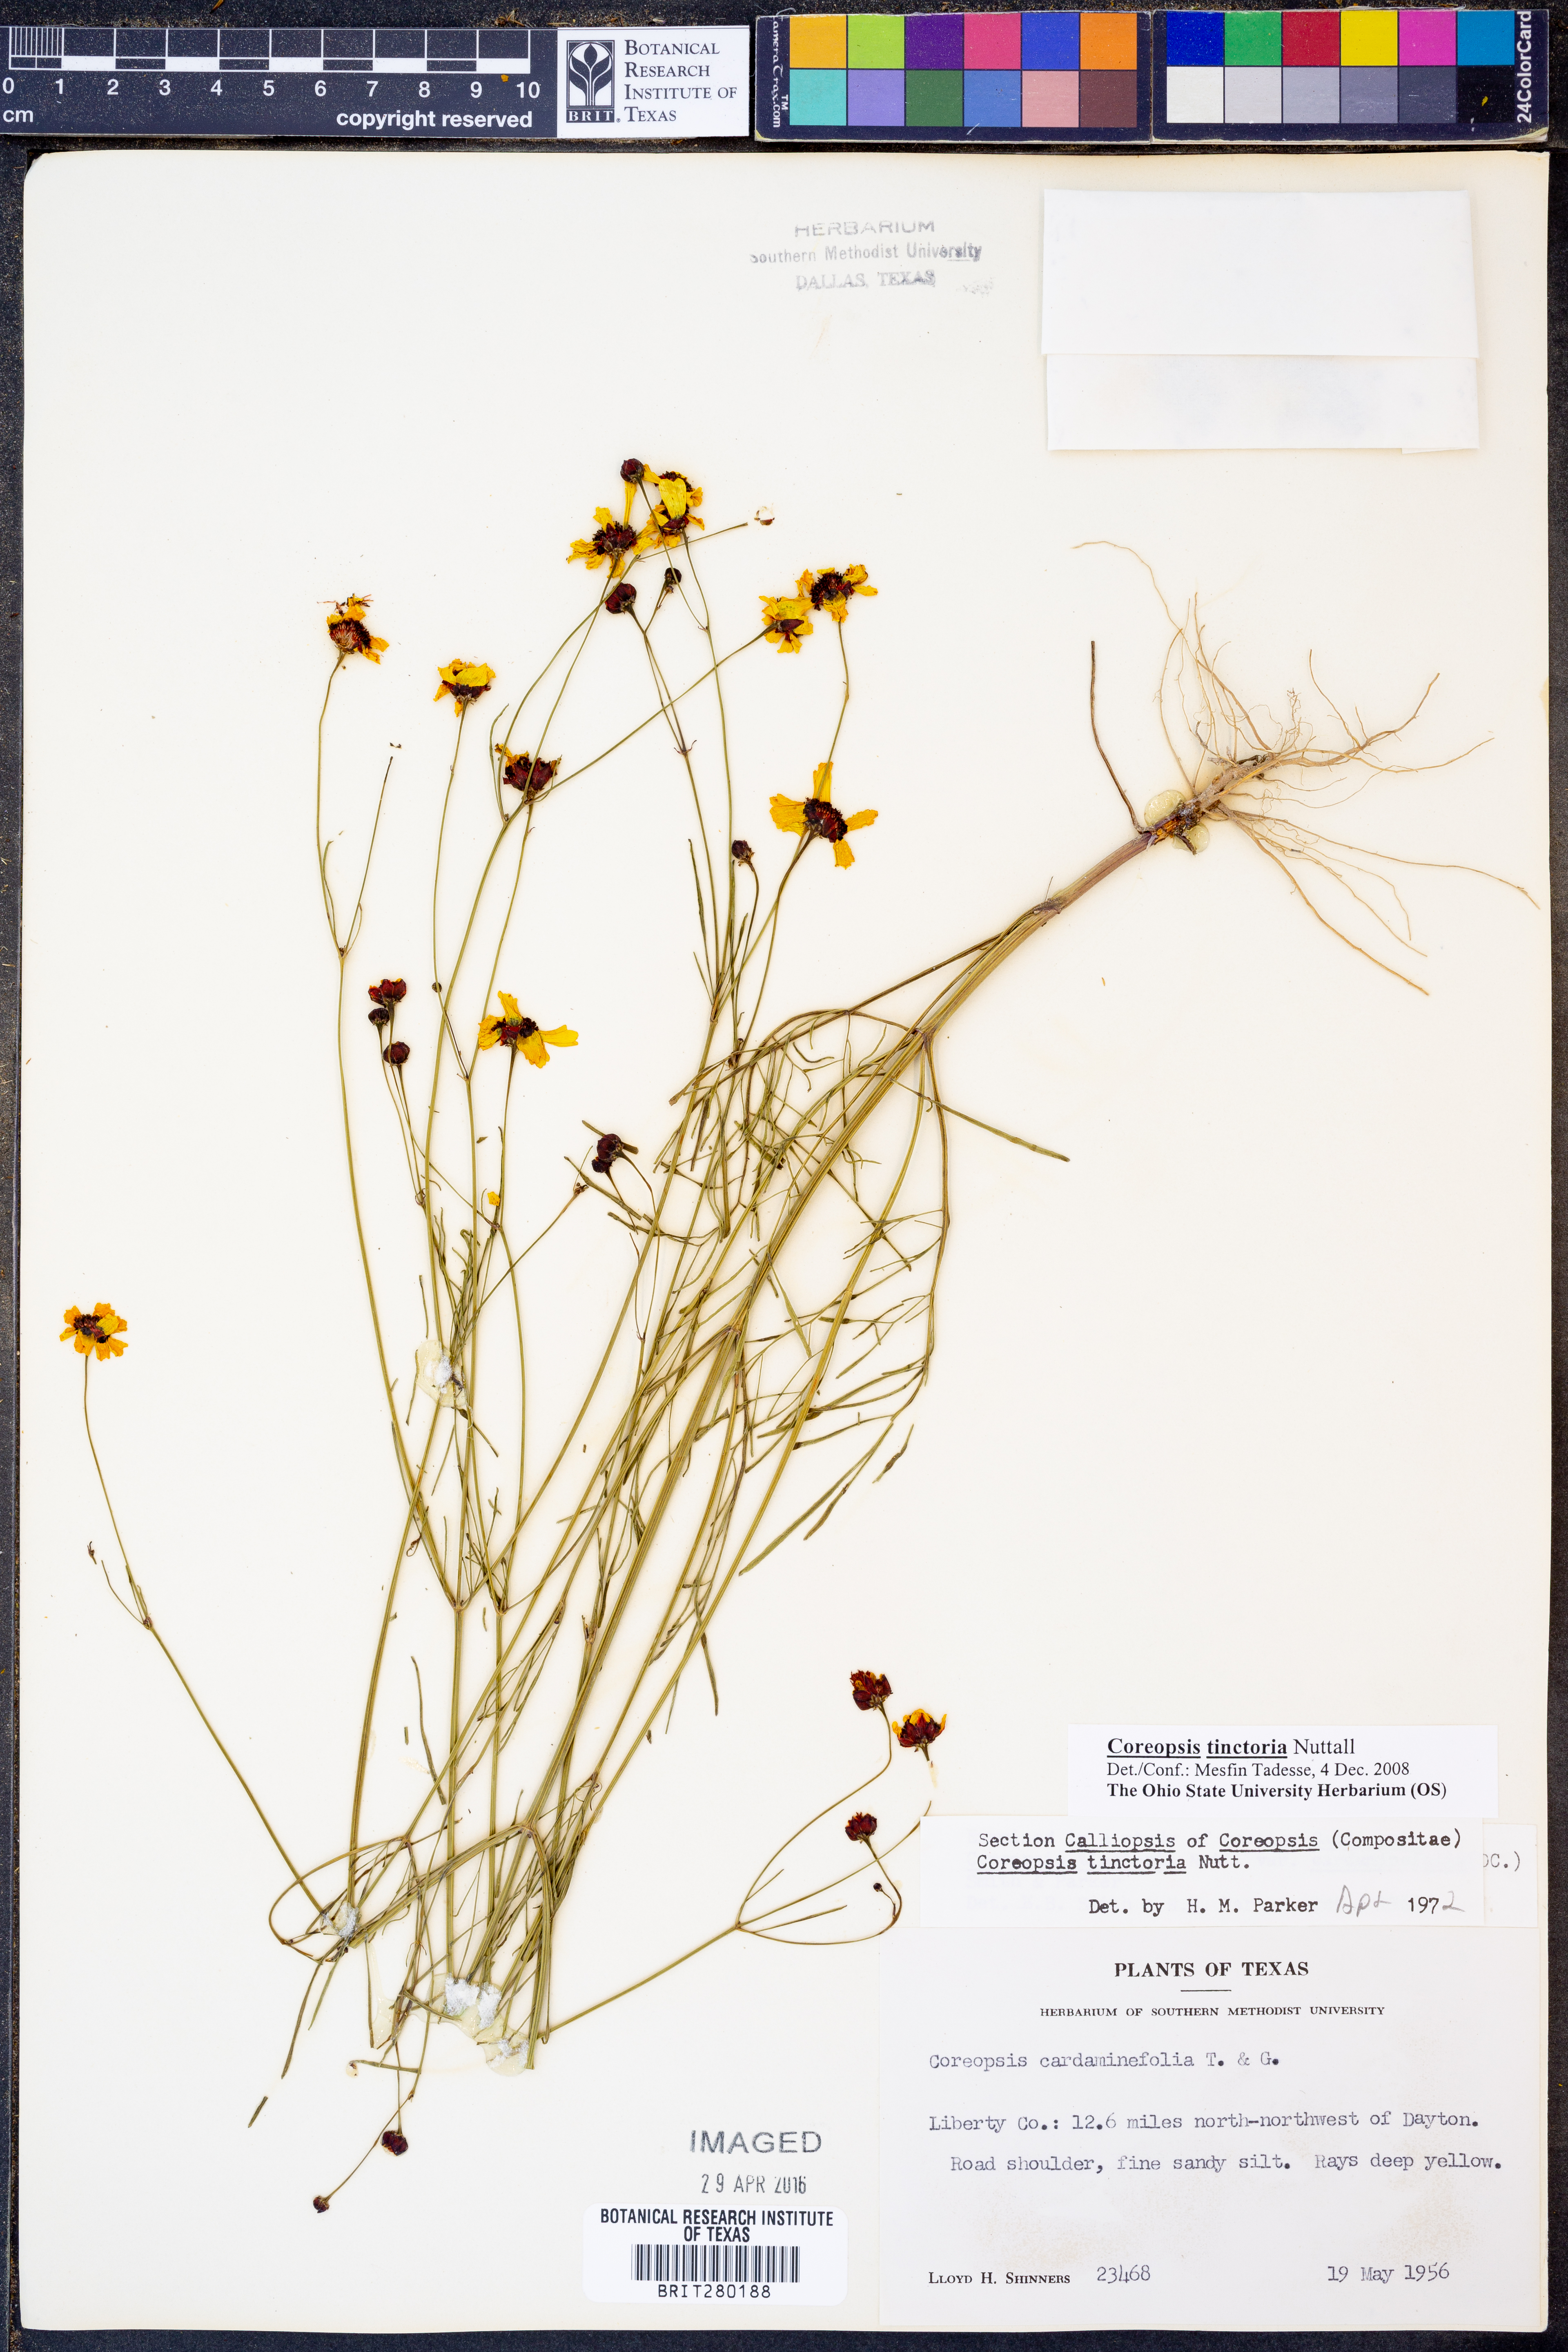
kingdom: Plantae
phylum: Tracheophyta
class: Magnoliopsida
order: Asterales
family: Asteraceae
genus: Coreopsis
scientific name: Coreopsis tinctoria
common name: Garden tickseed
